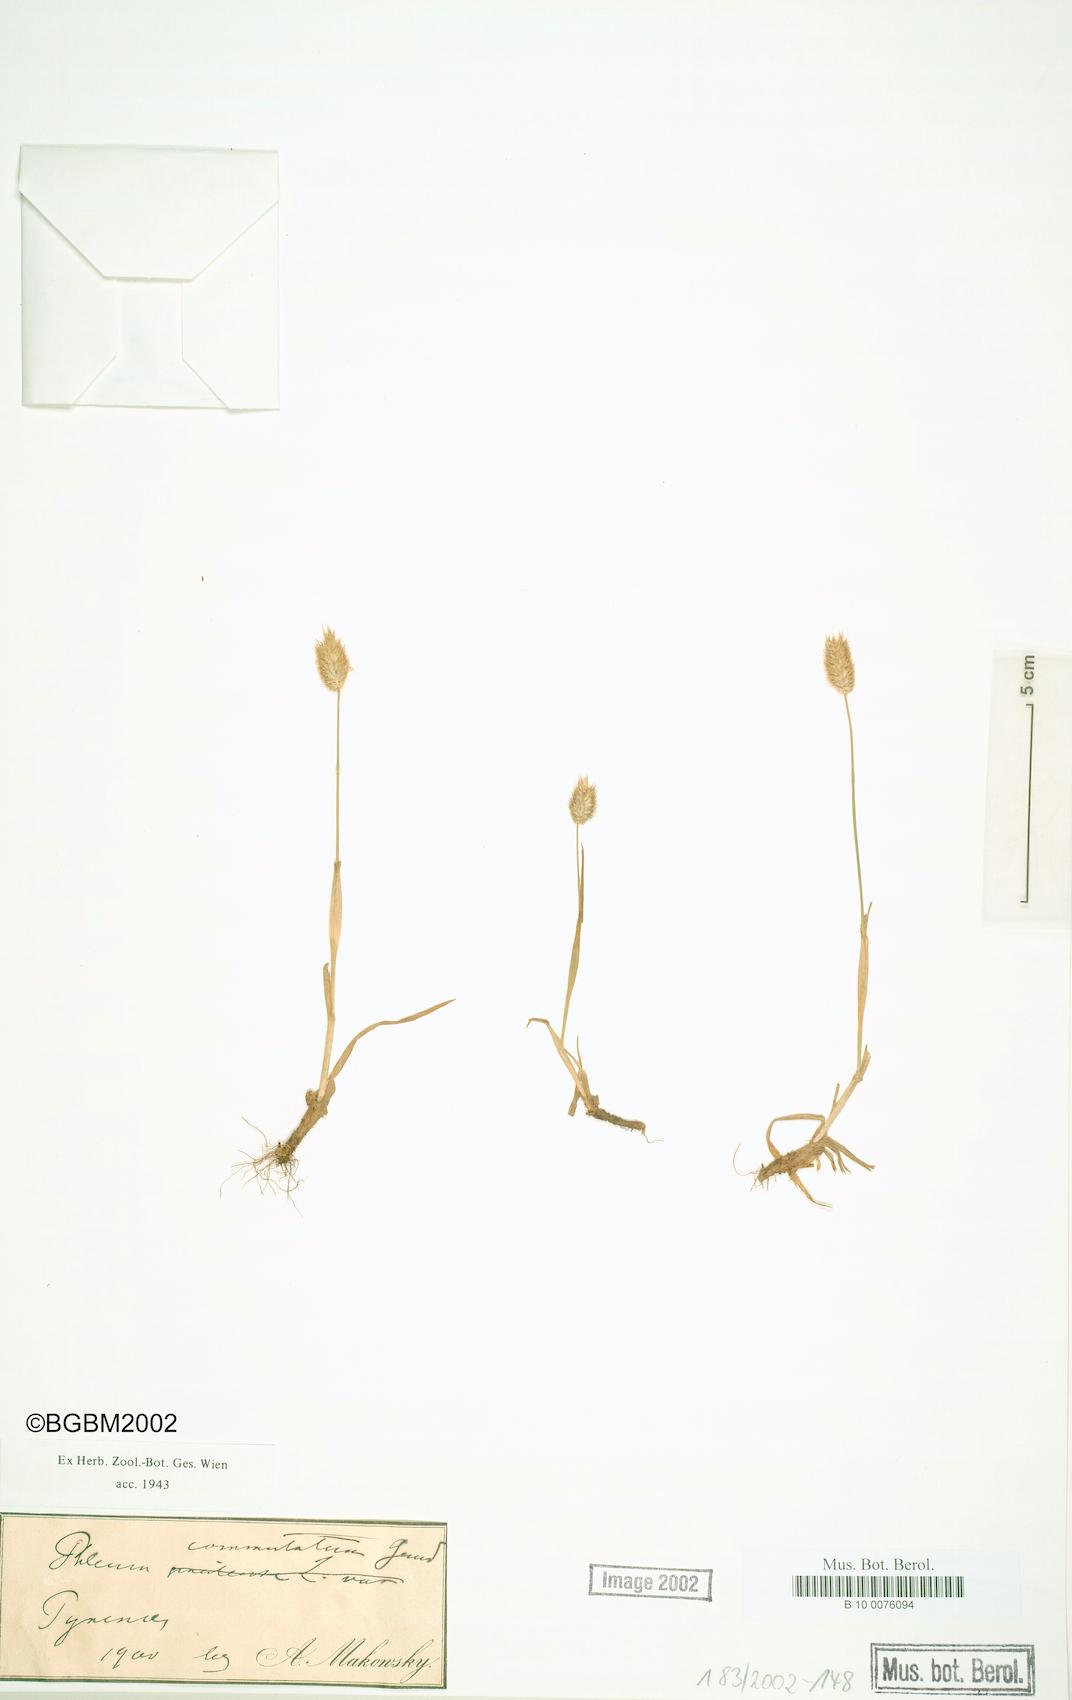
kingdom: Plantae
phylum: Tracheophyta
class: Liliopsida
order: Poales
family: Poaceae
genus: Phleum
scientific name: Phleum alpinum
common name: Alpine cat's-tail
